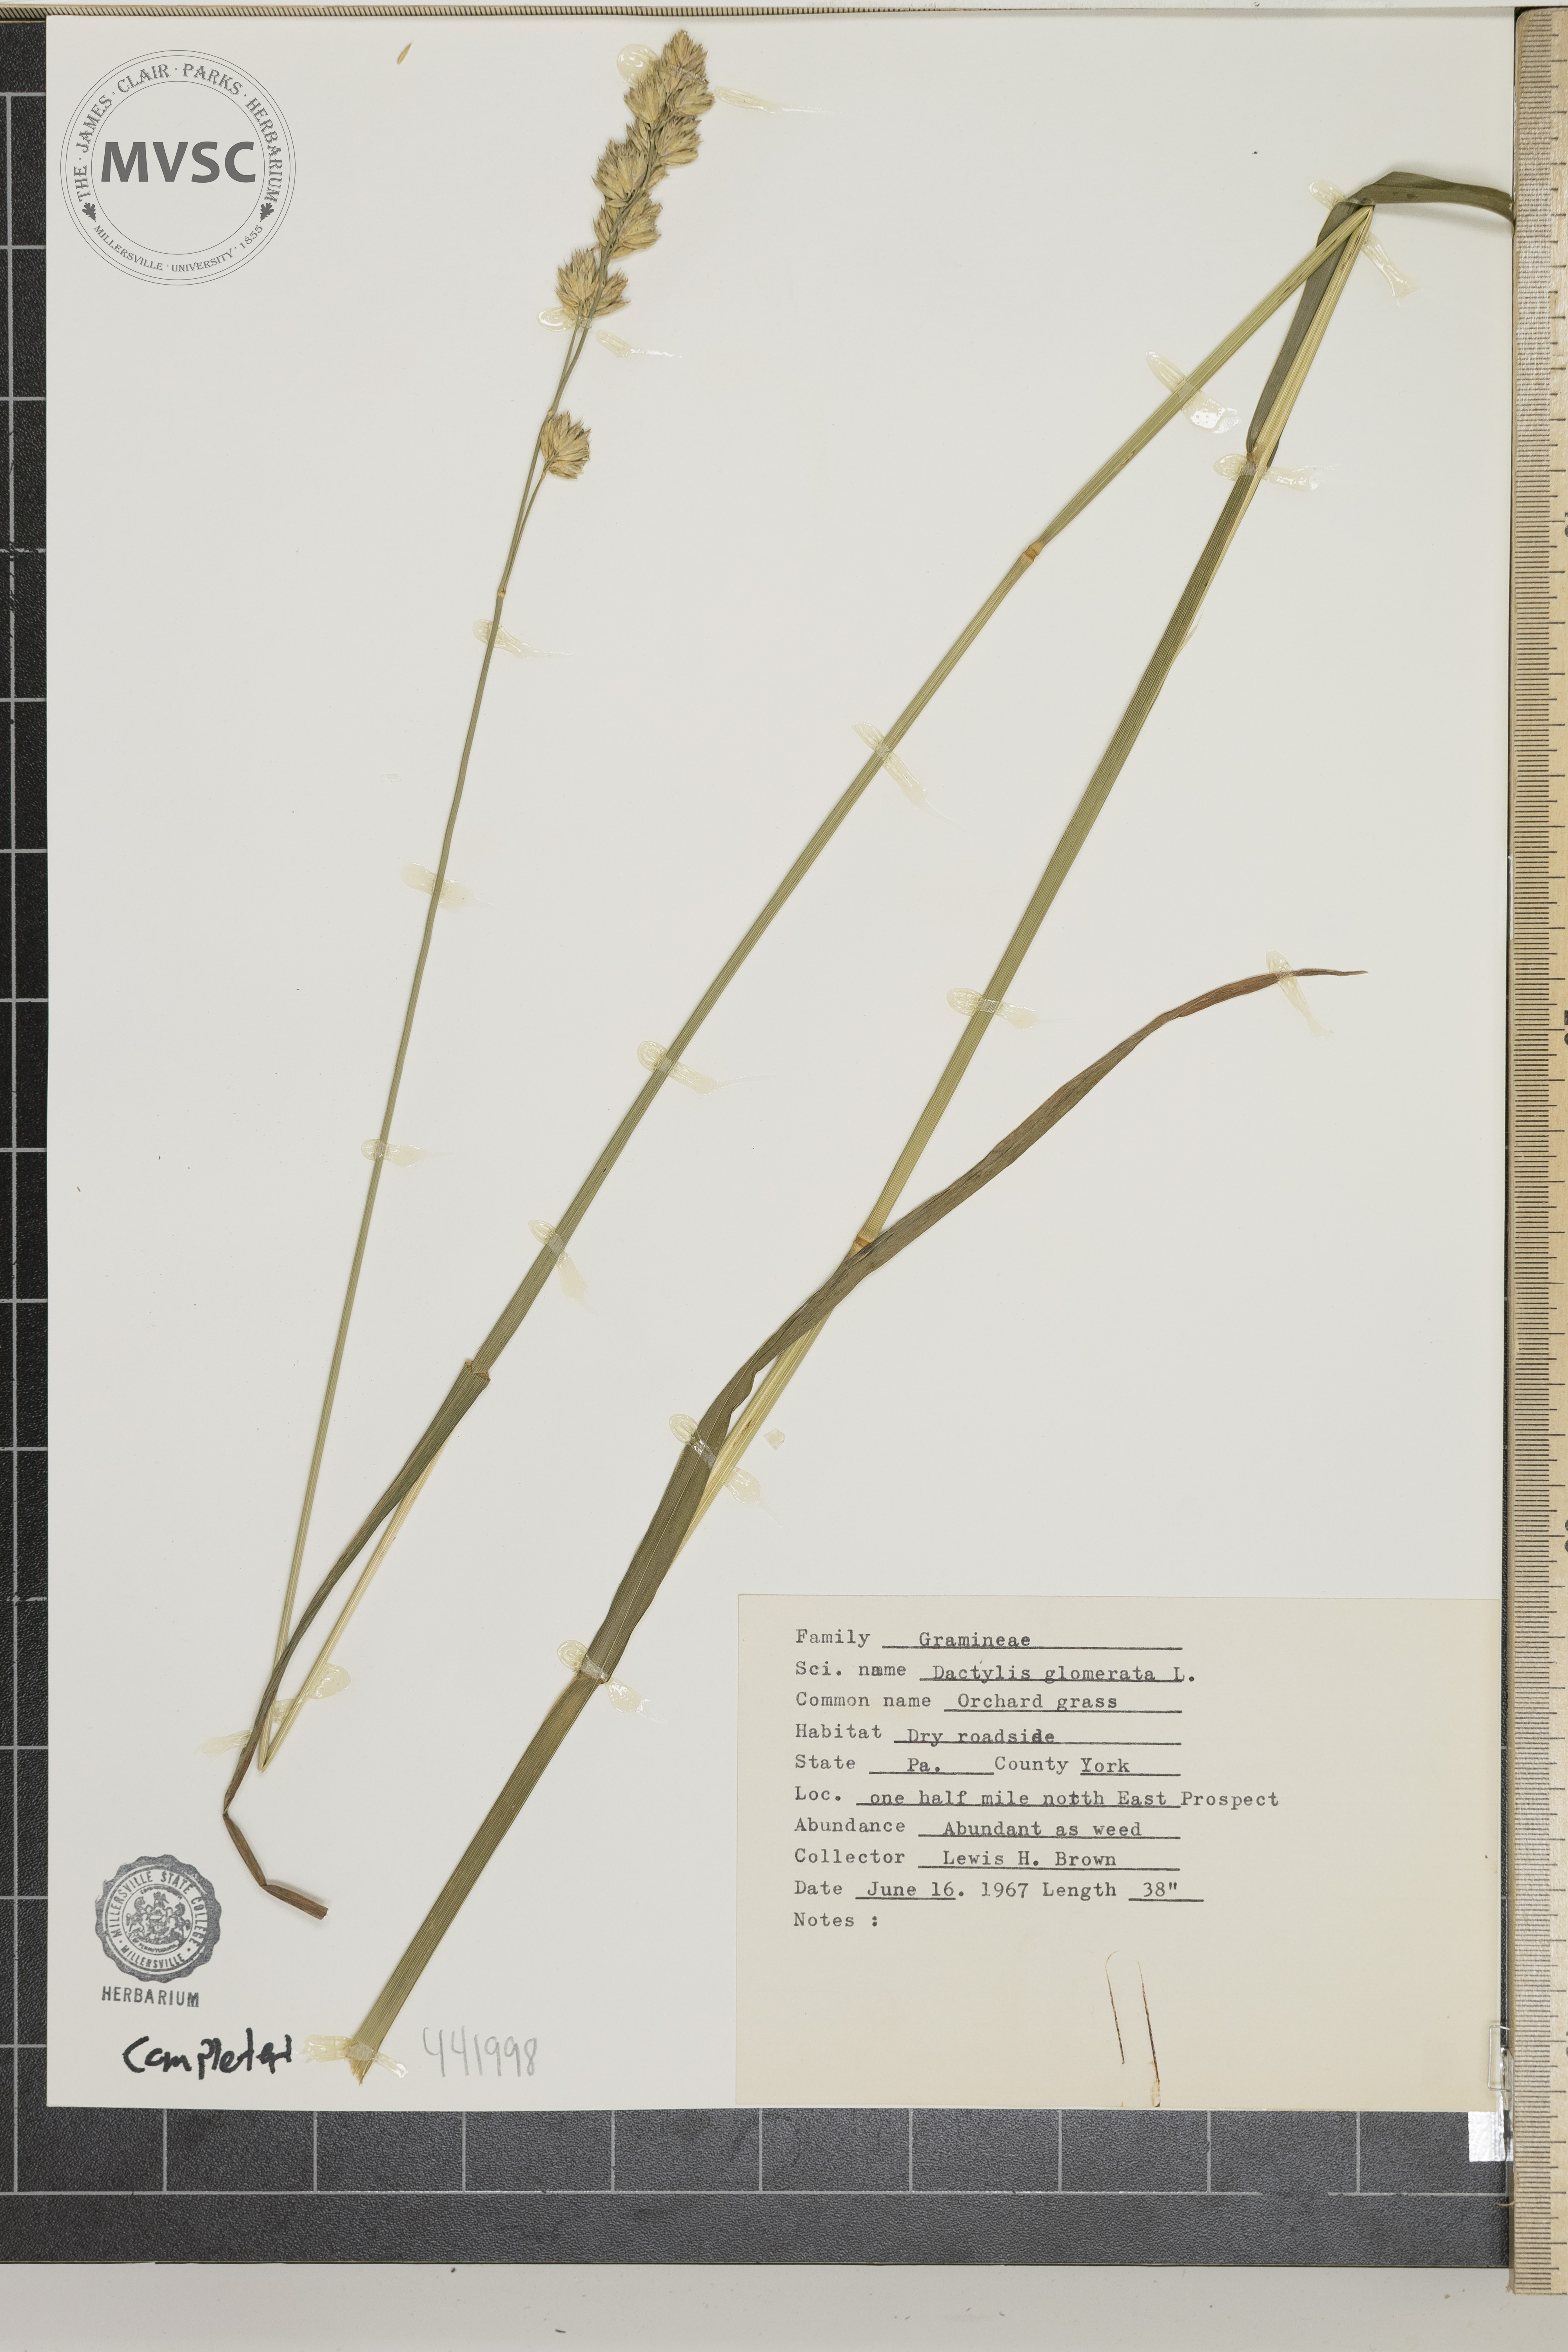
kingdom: Plantae
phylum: Tracheophyta
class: Liliopsida
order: Poales
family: Poaceae
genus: Dactylis
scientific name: Dactylis glomerata
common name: Orchard grass
